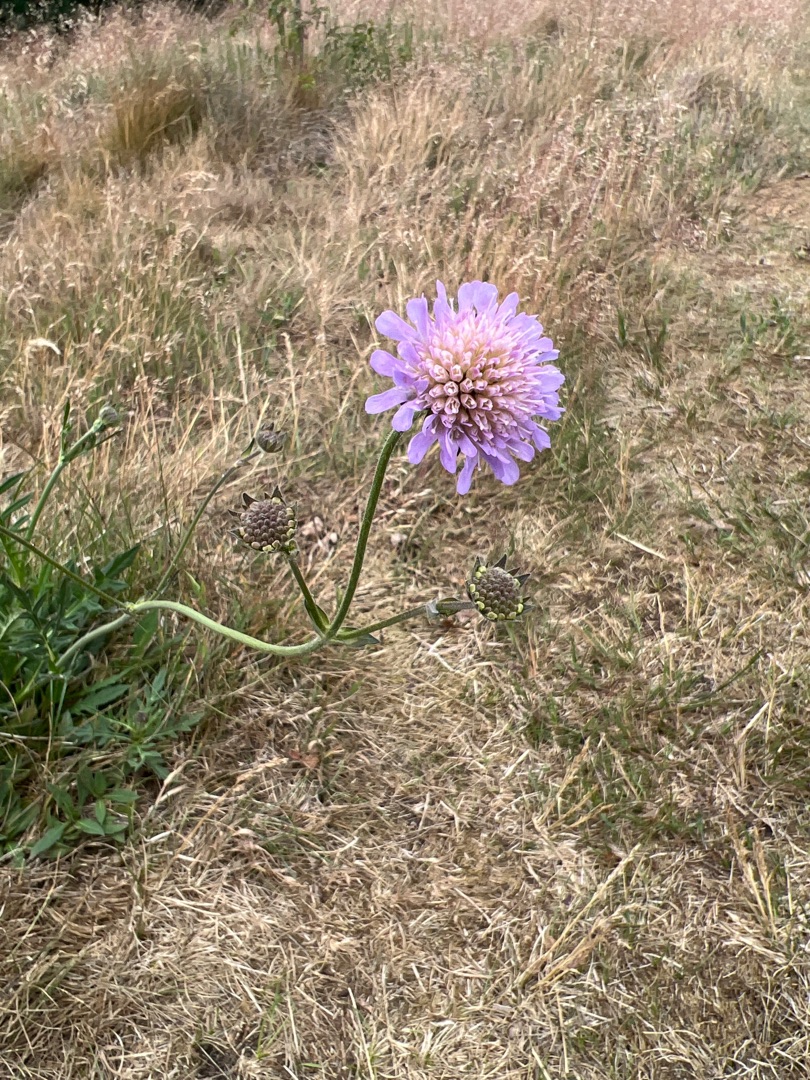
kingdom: Plantae
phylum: Tracheophyta
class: Magnoliopsida
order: Dipsacales
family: Caprifoliaceae
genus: Knautia
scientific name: Knautia arvensis
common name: Blåhat
